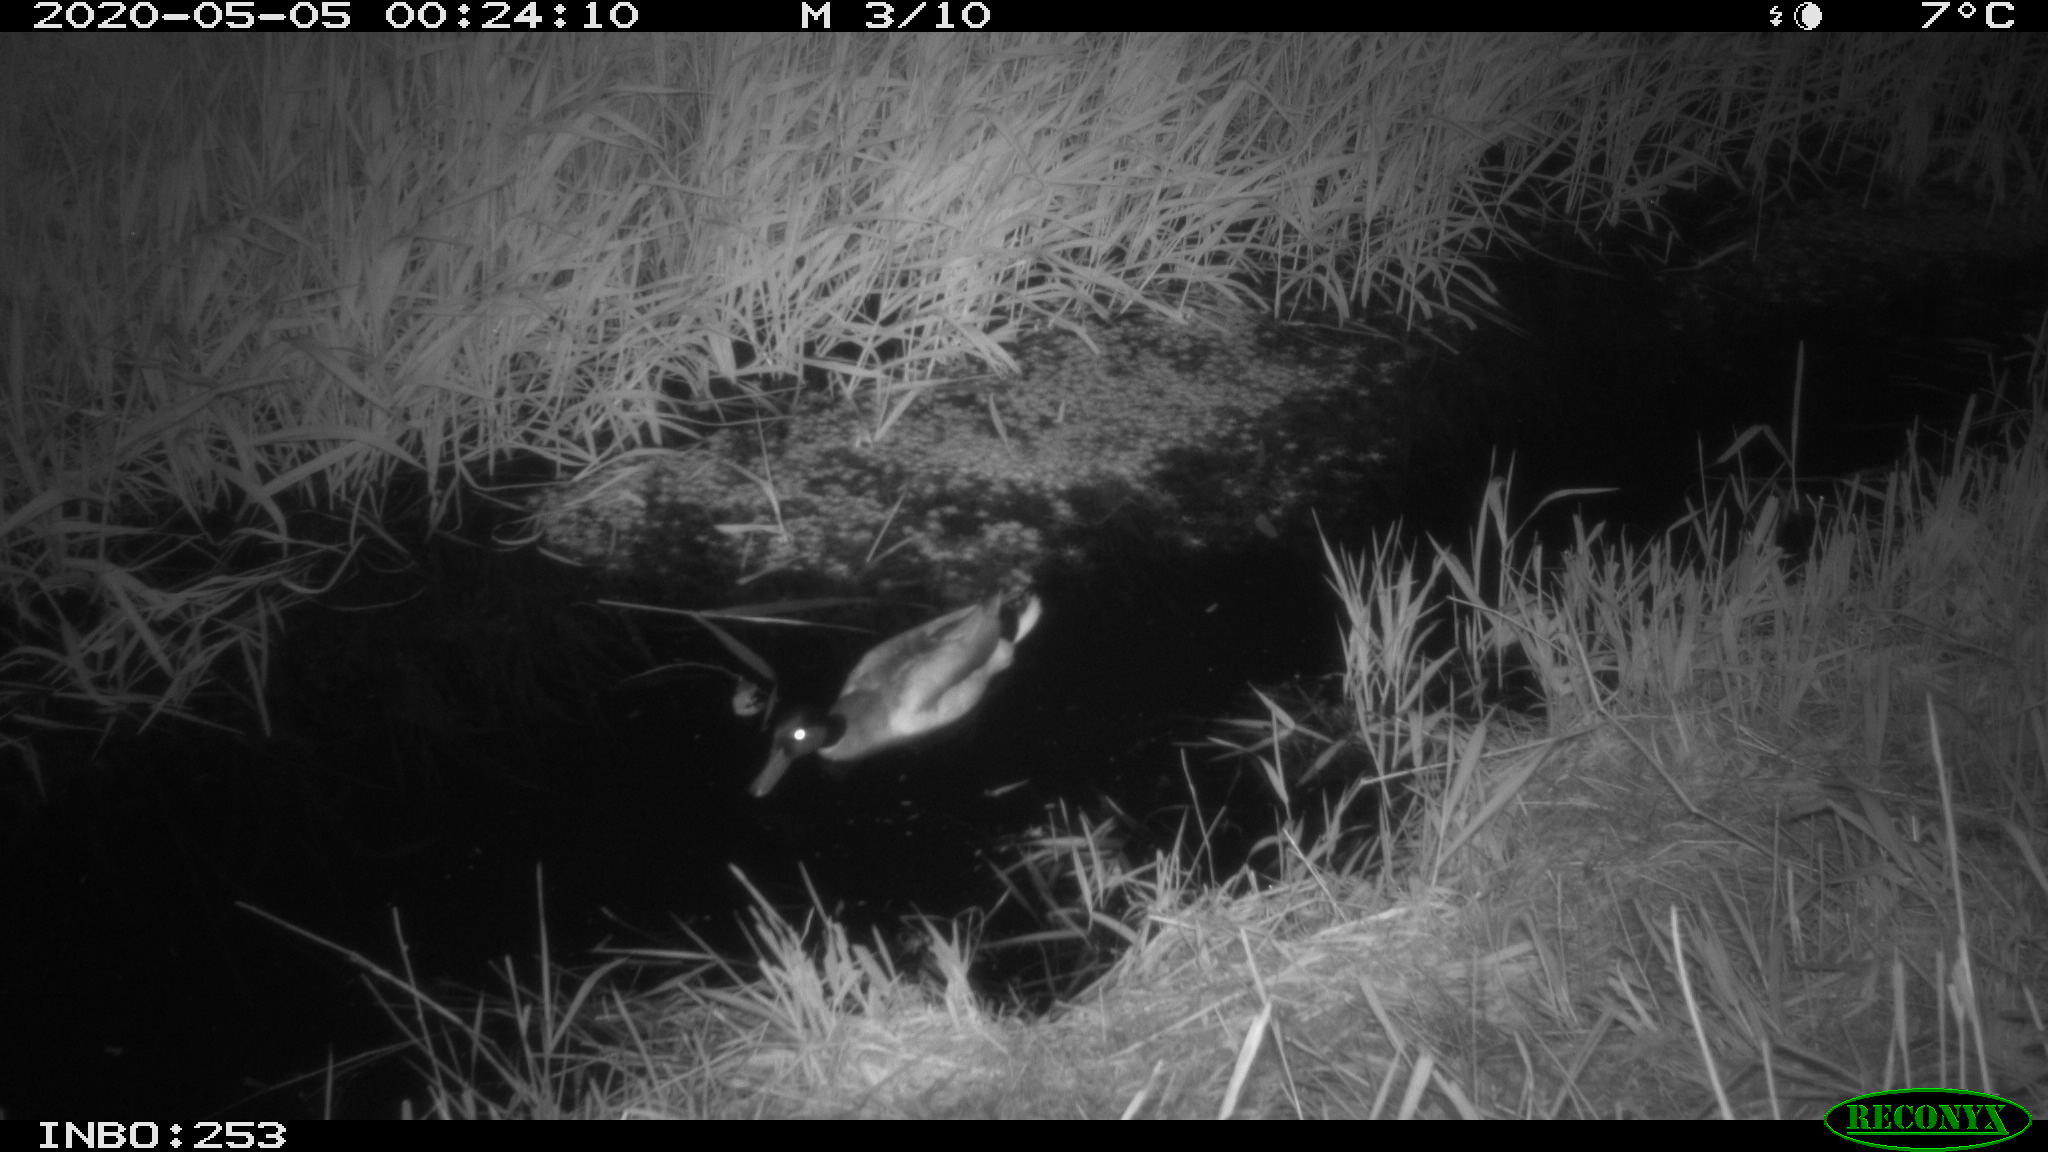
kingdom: Animalia
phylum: Chordata
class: Aves
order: Anseriformes
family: Anatidae
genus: Anas
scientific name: Anas platyrhynchos
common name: Mallard
